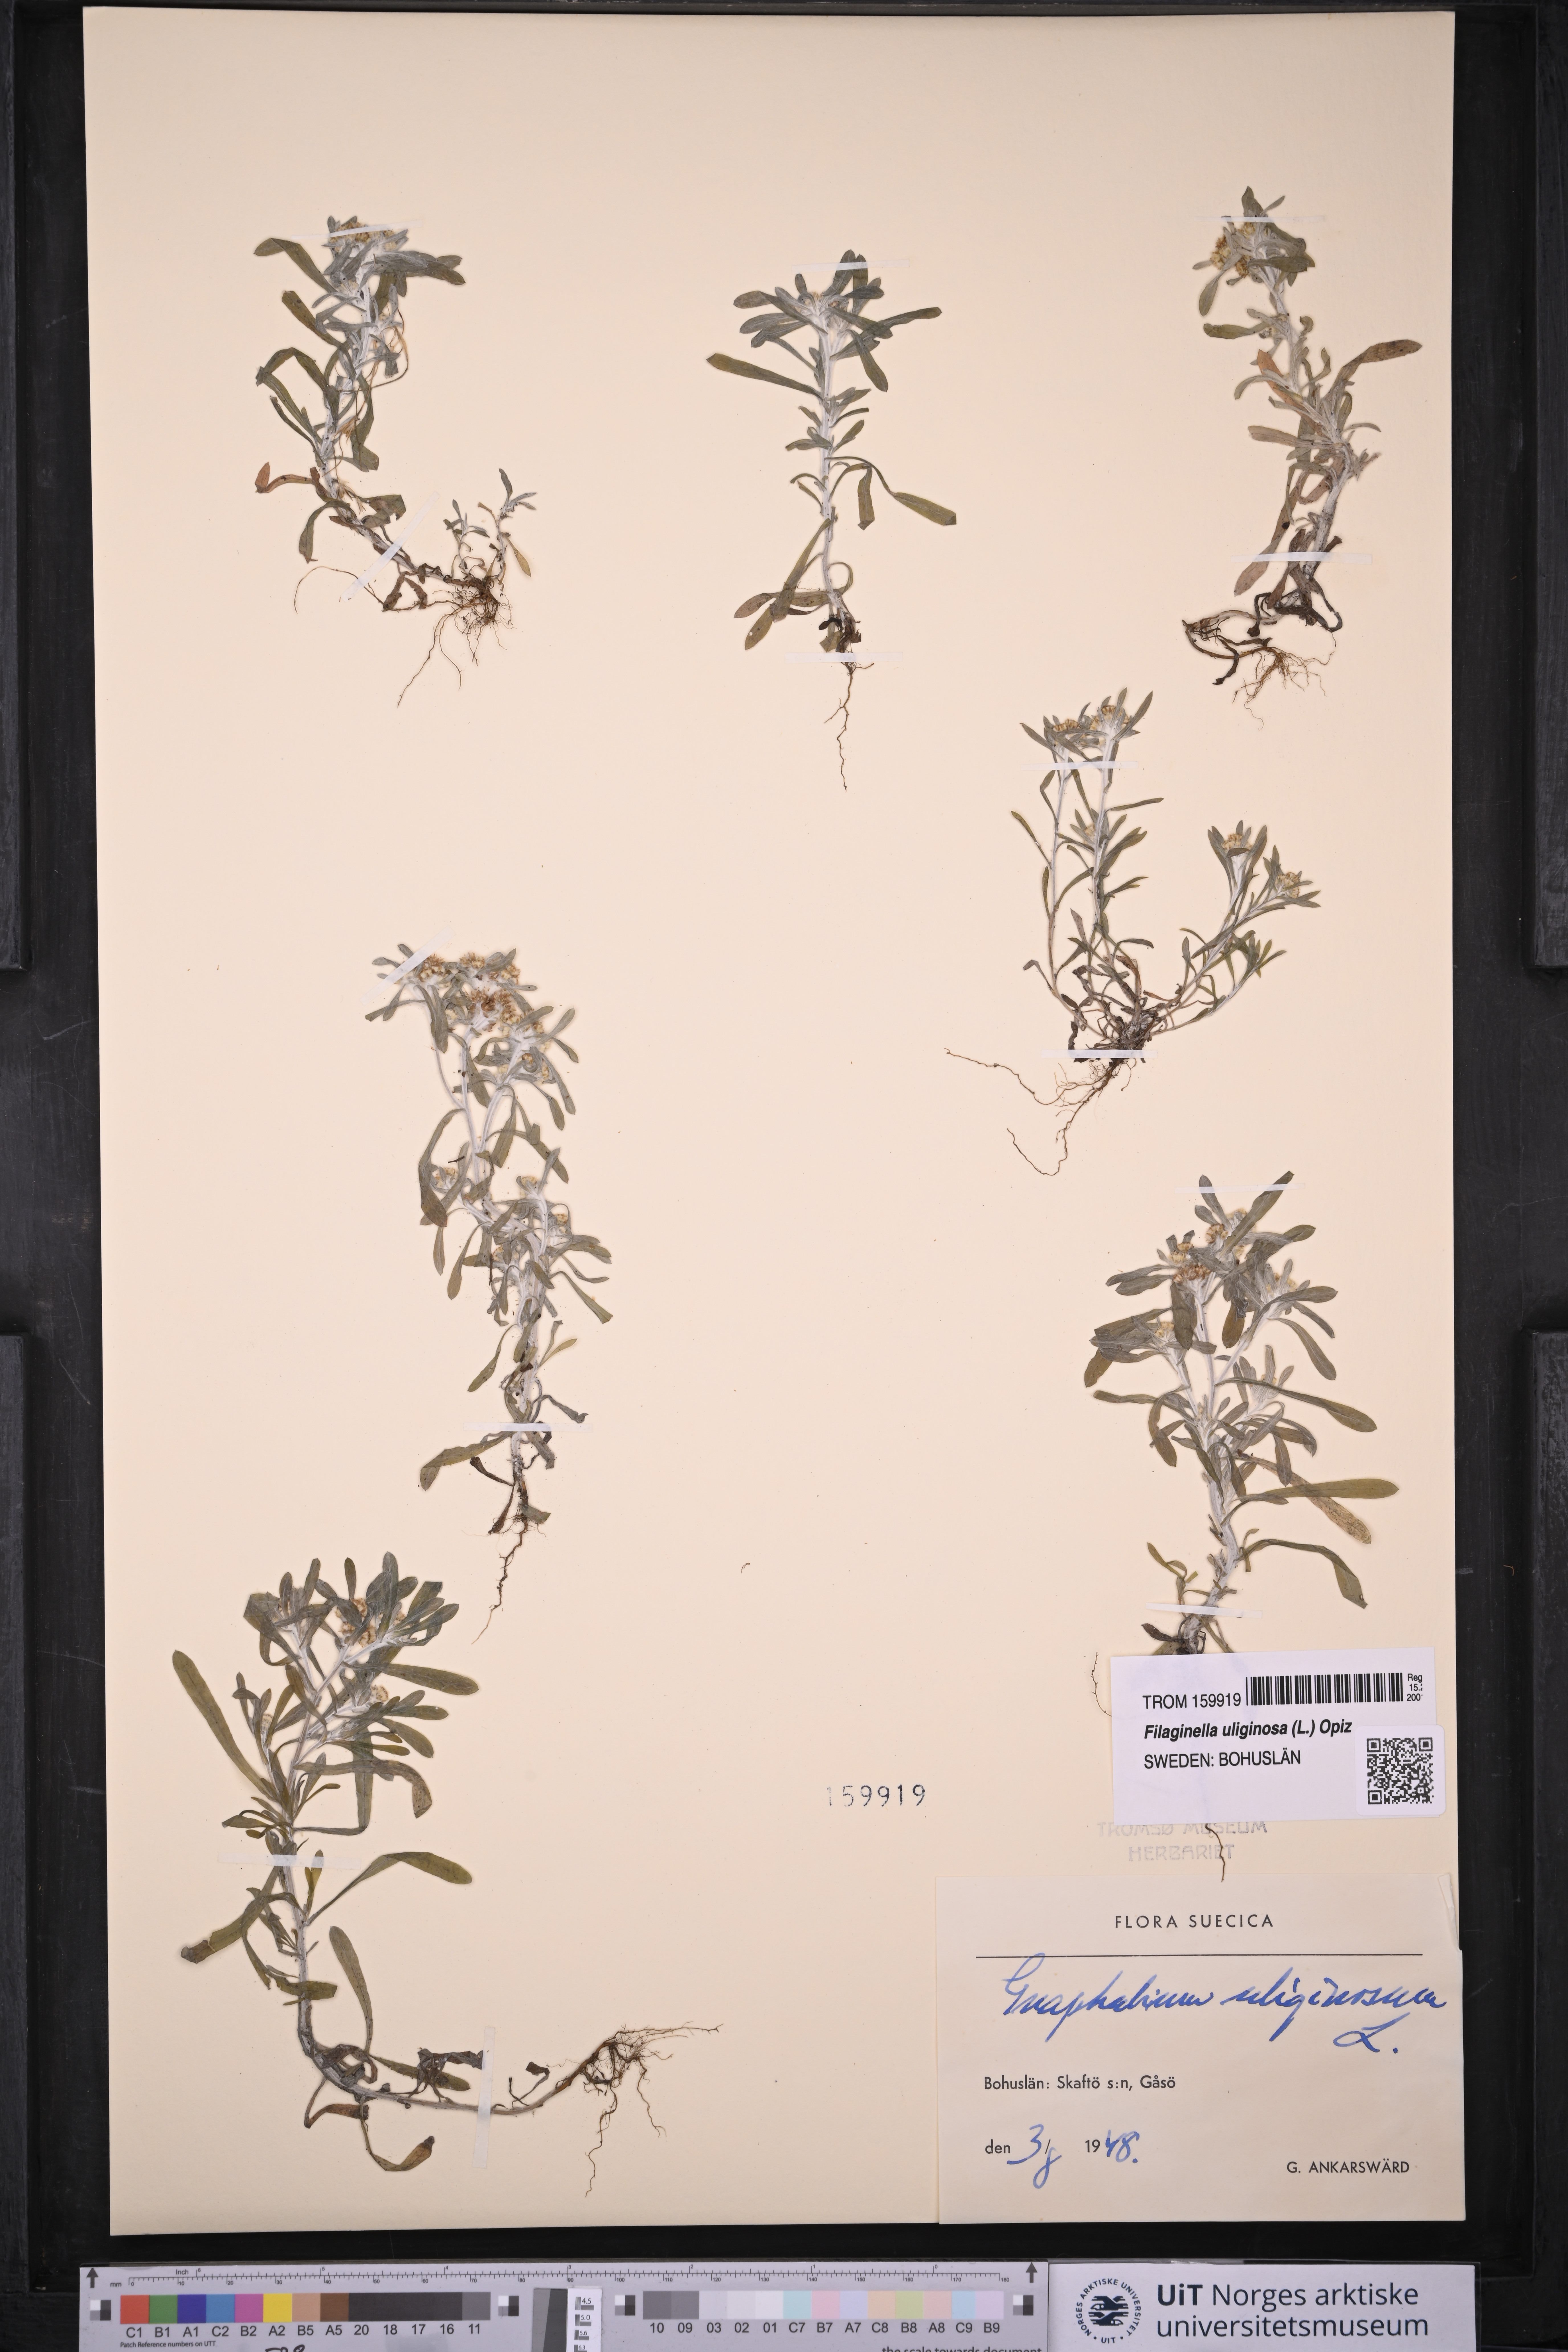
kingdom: Plantae
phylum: Tracheophyta
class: Magnoliopsida
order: Asterales
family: Asteraceae
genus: Gnaphalium
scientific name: Gnaphalium uliginosum
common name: Marsh cudweed
